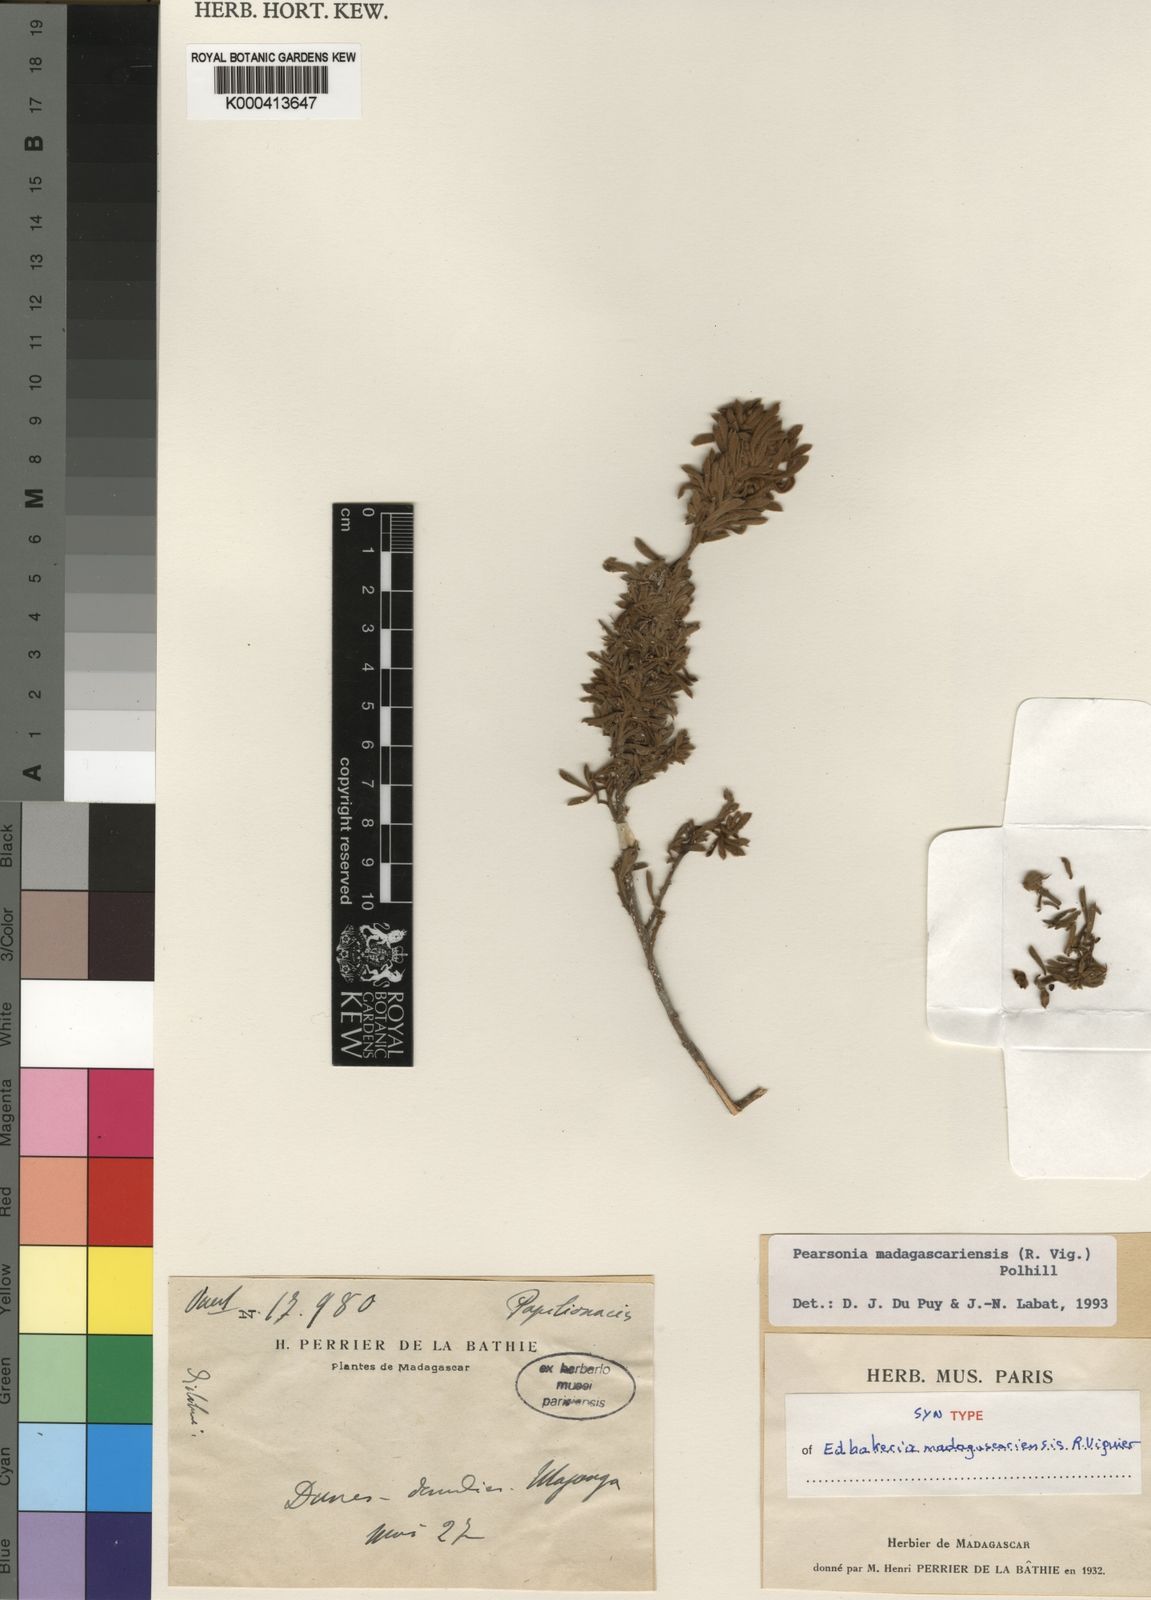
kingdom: Plantae
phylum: Tracheophyta
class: Magnoliopsida
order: Fabales
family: Fabaceae
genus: Pearsonia
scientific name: Pearsonia madagascariensis
